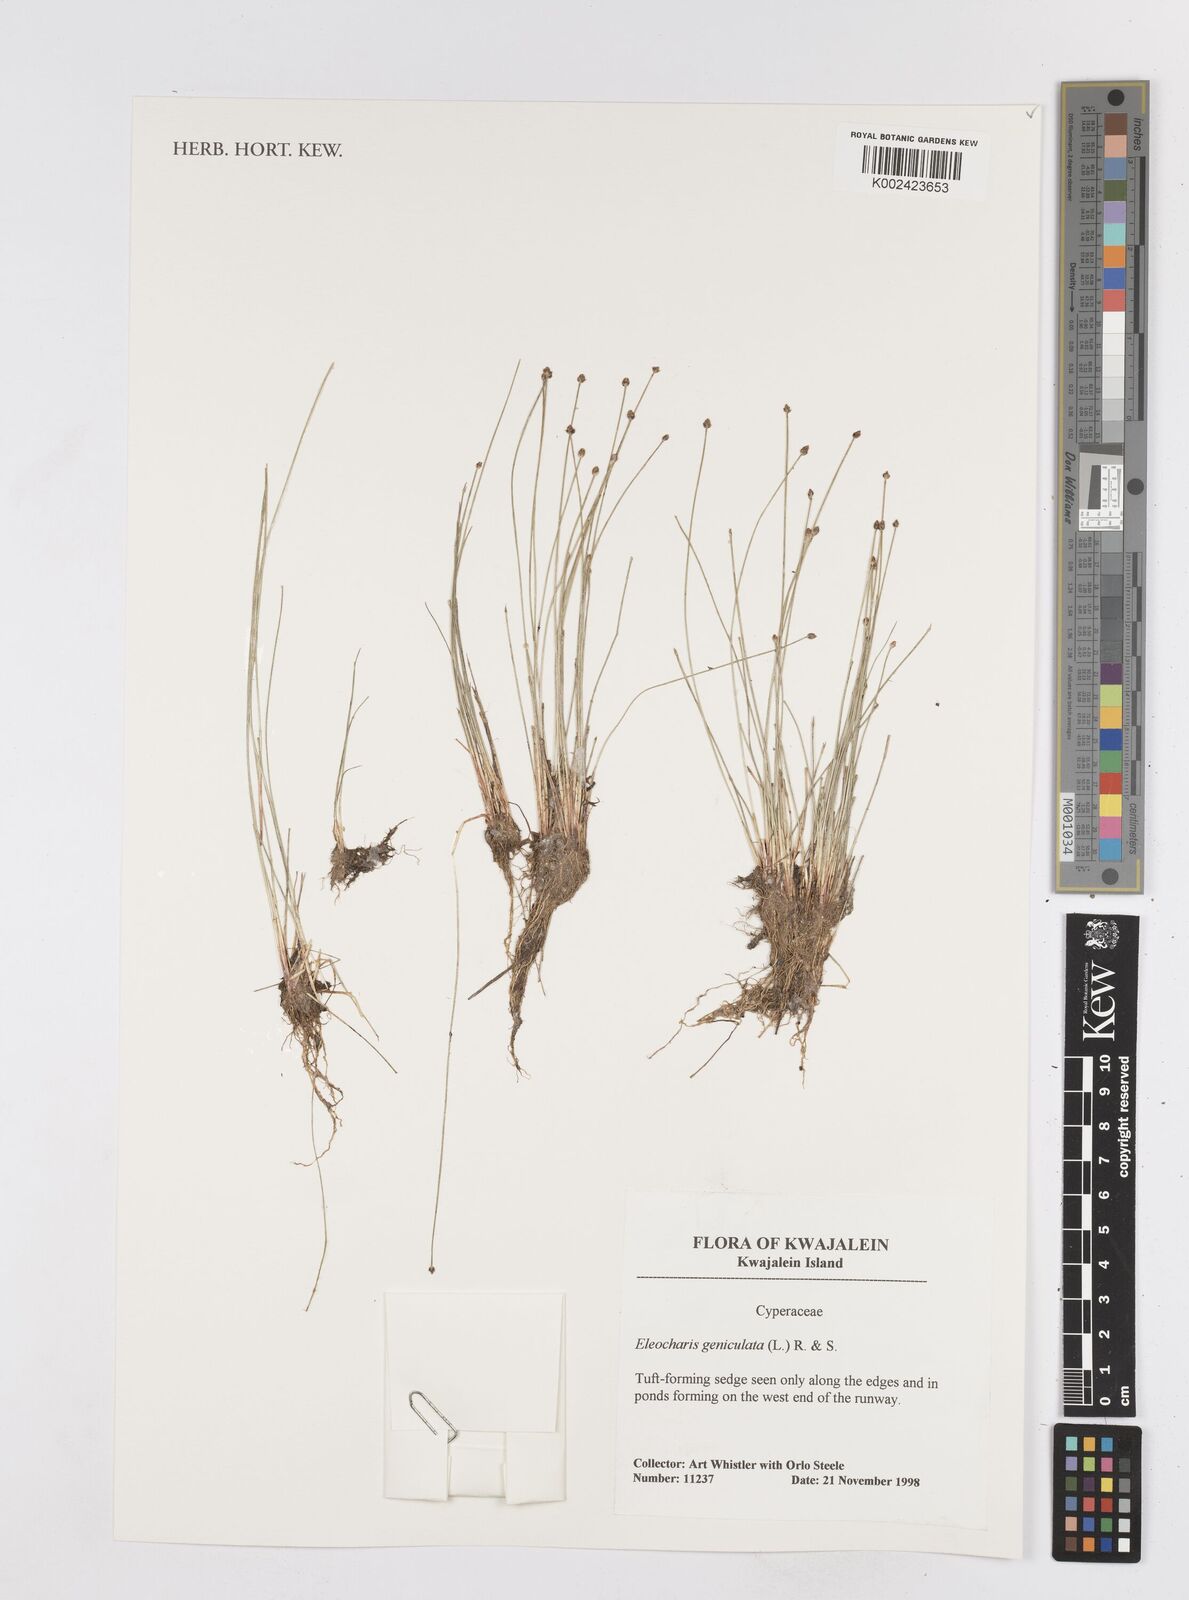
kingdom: Plantae
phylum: Tracheophyta
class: Liliopsida
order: Poales
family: Cyperaceae
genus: Eleocharis
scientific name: Eleocharis geniculata
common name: Canada spikesedge
